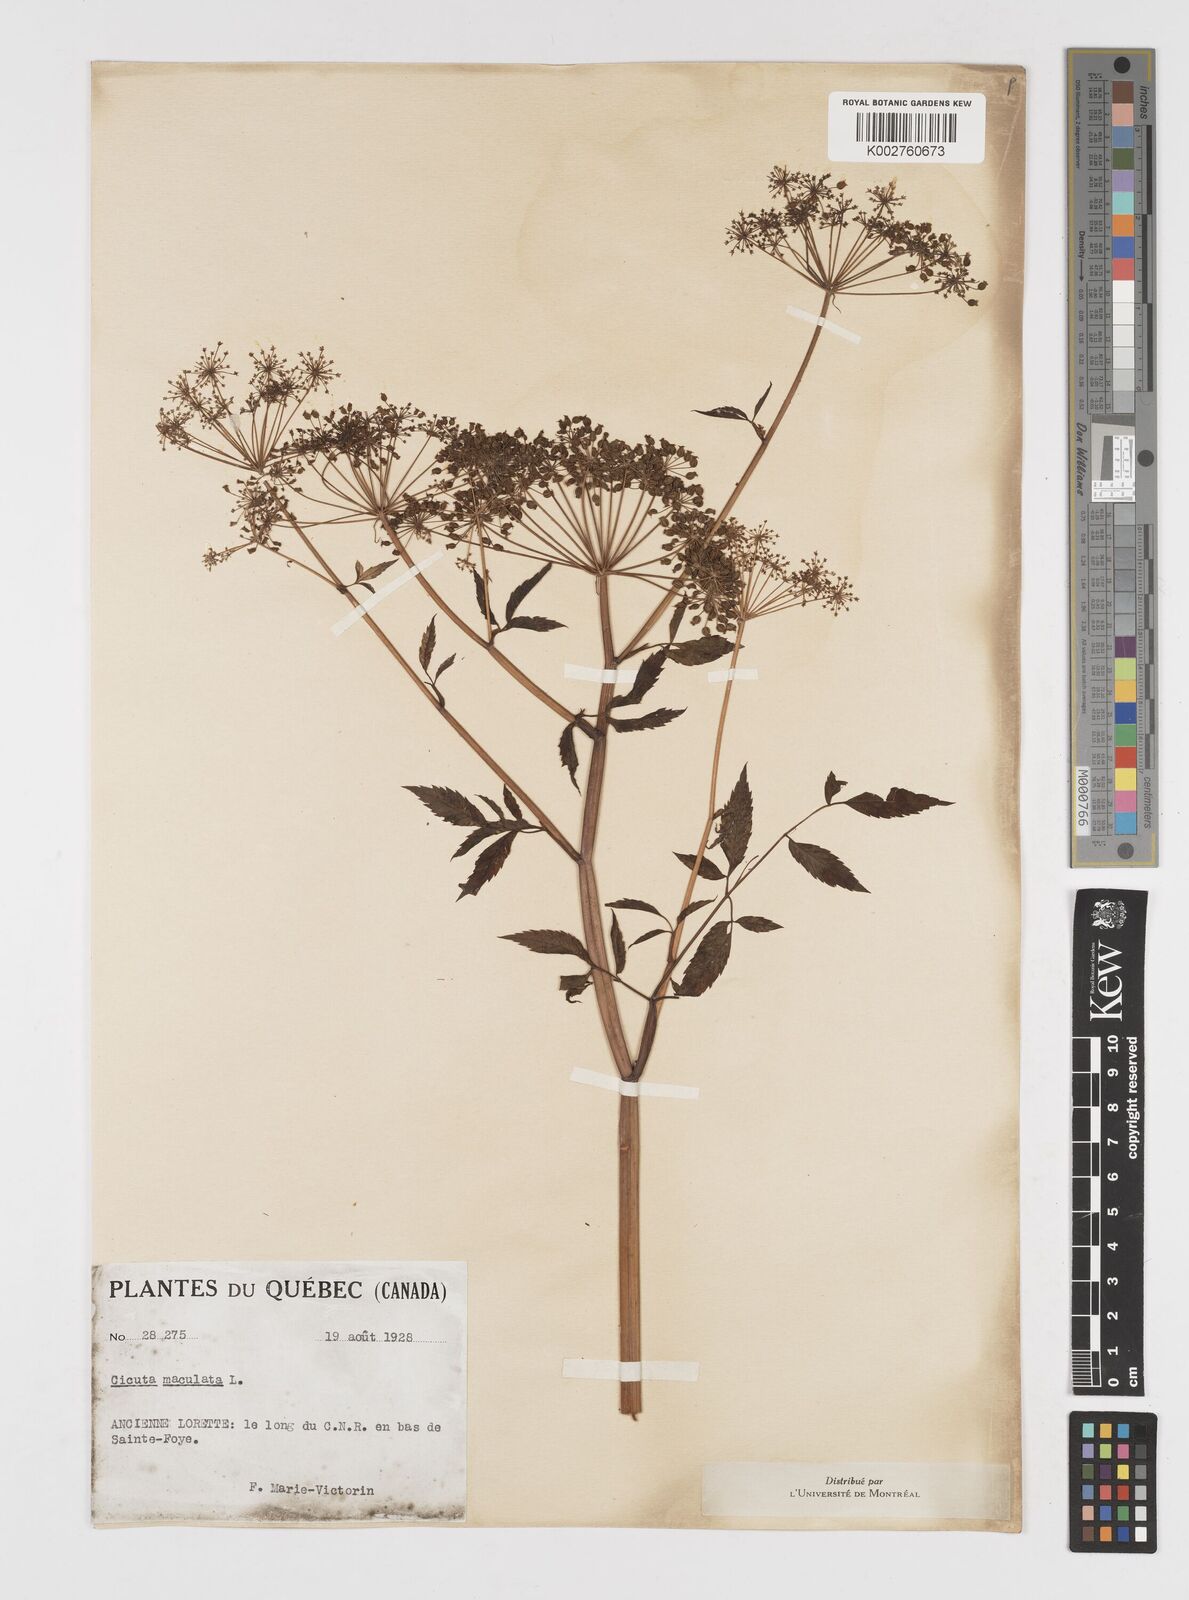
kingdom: Plantae
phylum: Tracheophyta
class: Magnoliopsida
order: Apiales
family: Apiaceae
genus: Cicuta
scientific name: Cicuta maculata
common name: Spotted cowbane
